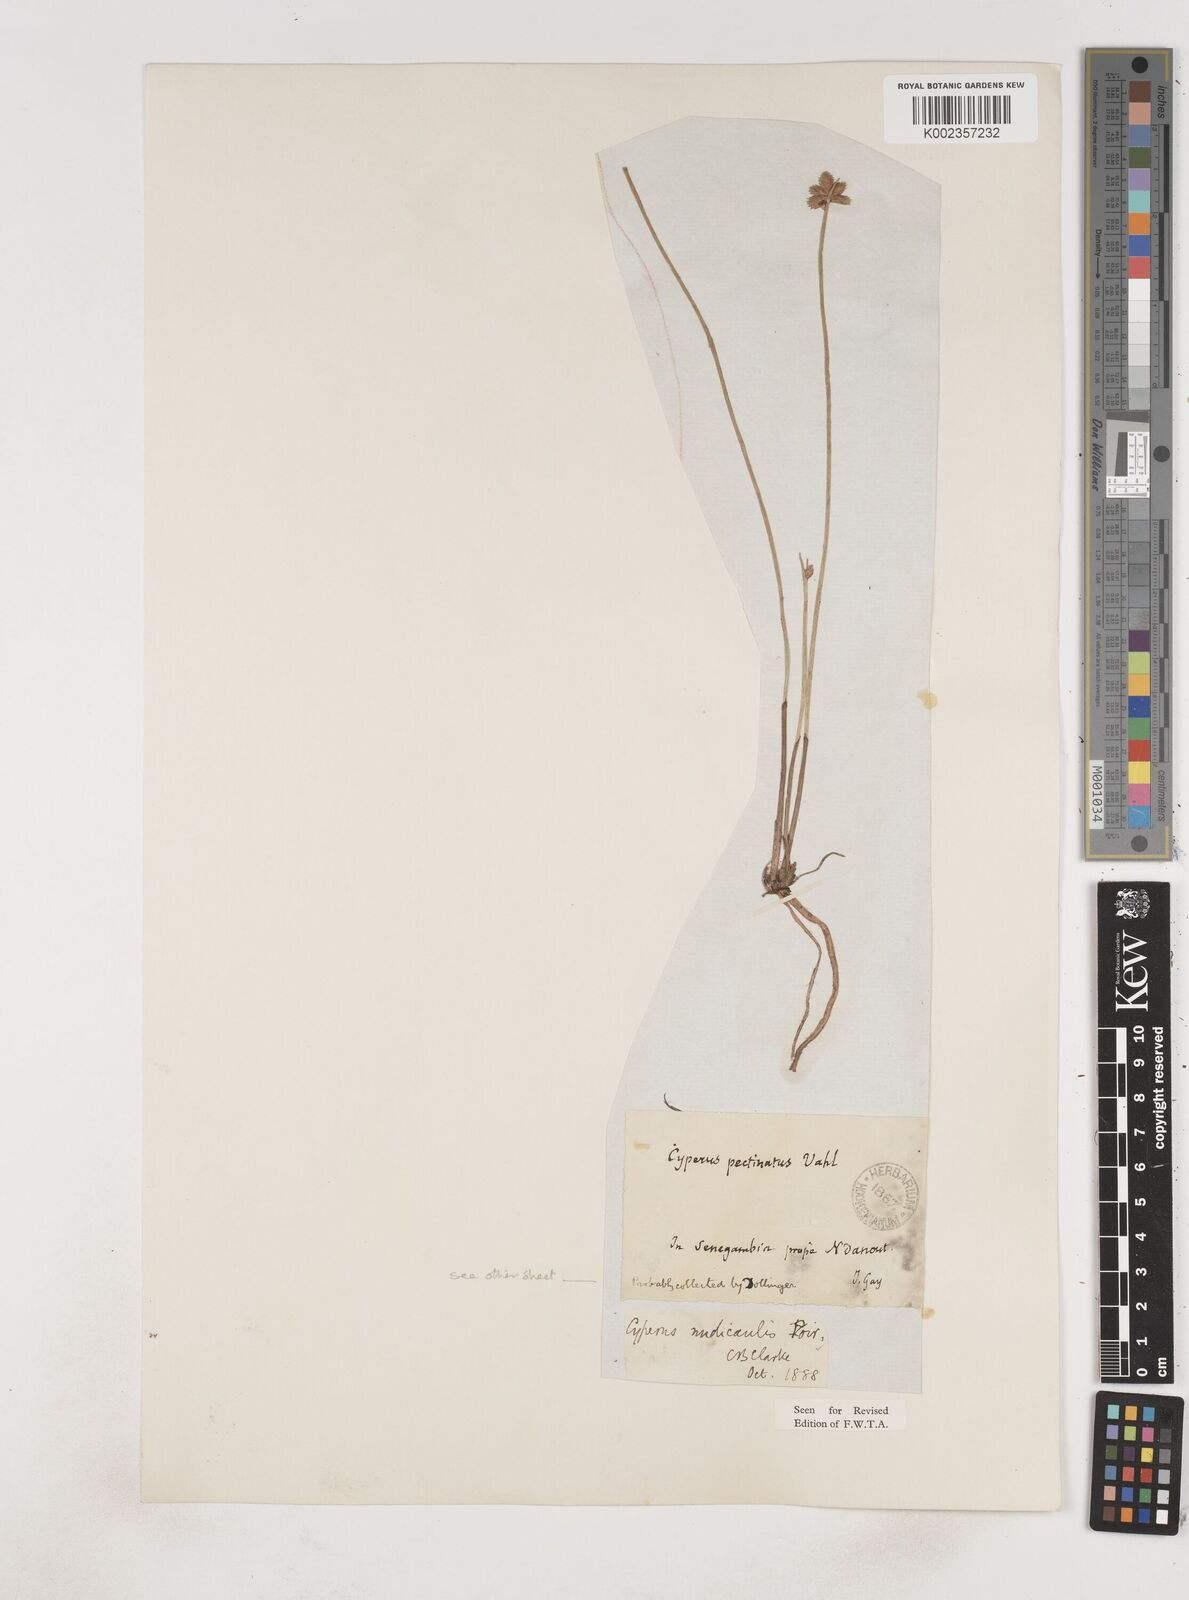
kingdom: Plantae
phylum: Tracheophyta
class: Liliopsida
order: Poales
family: Cyperaceae
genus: Cyperus
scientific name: Cyperus pectinatus
